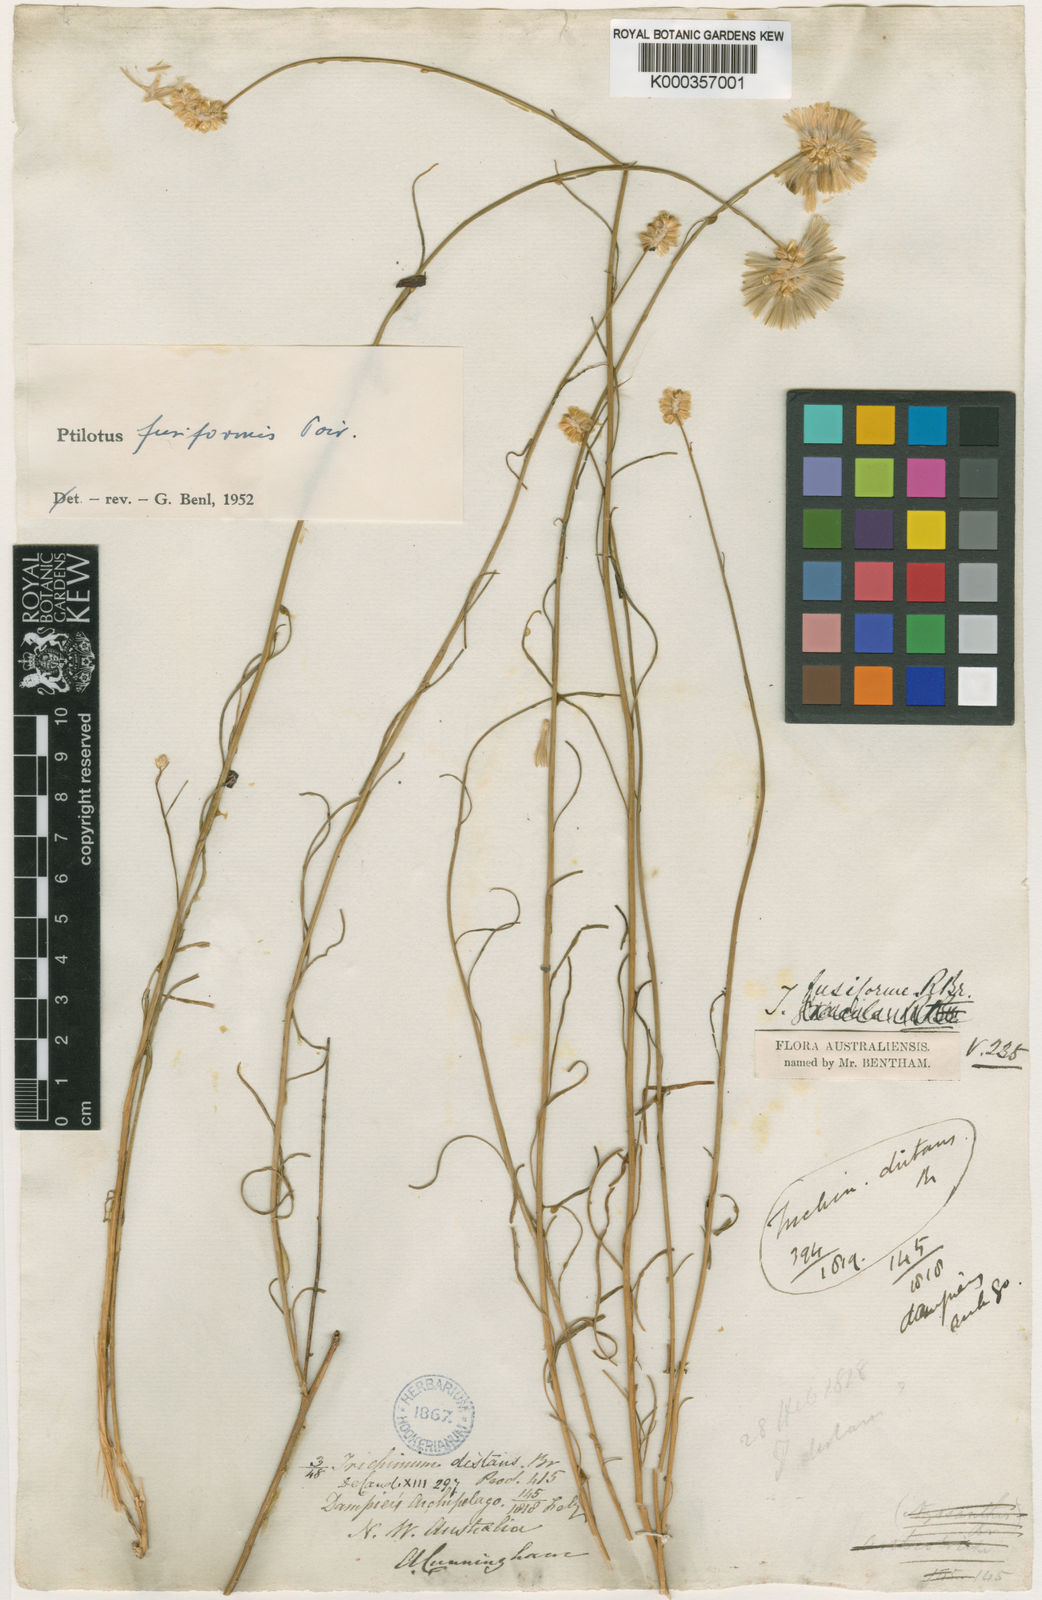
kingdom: Plantae
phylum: Tracheophyta
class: Magnoliopsida
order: Caryophyllales
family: Amaranthaceae
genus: Ptilotus
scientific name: Ptilotus fusiformis
